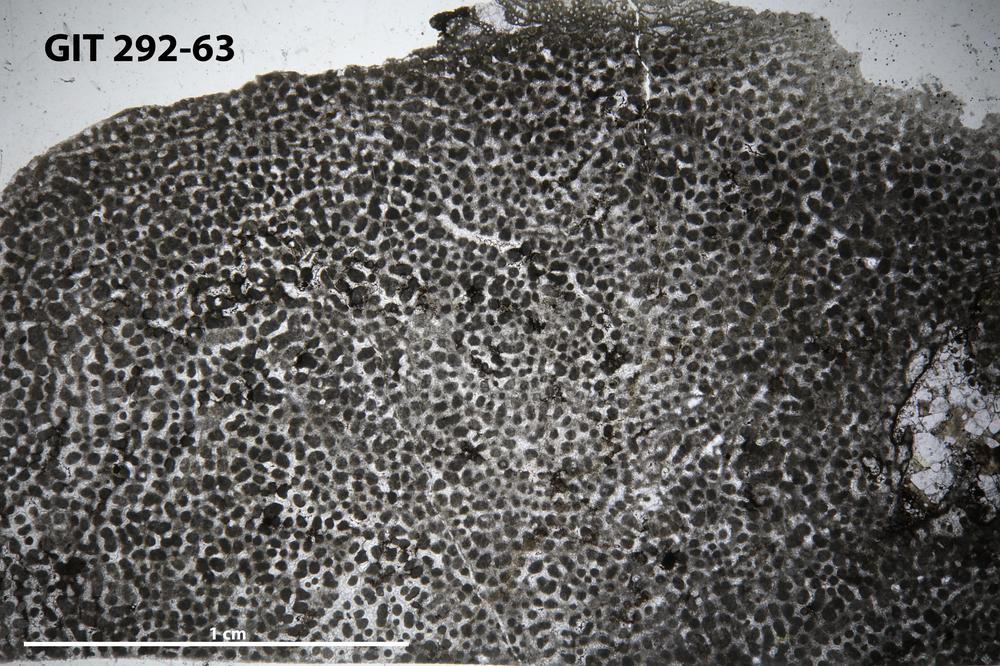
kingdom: Animalia
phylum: Porifera
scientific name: Porifera
